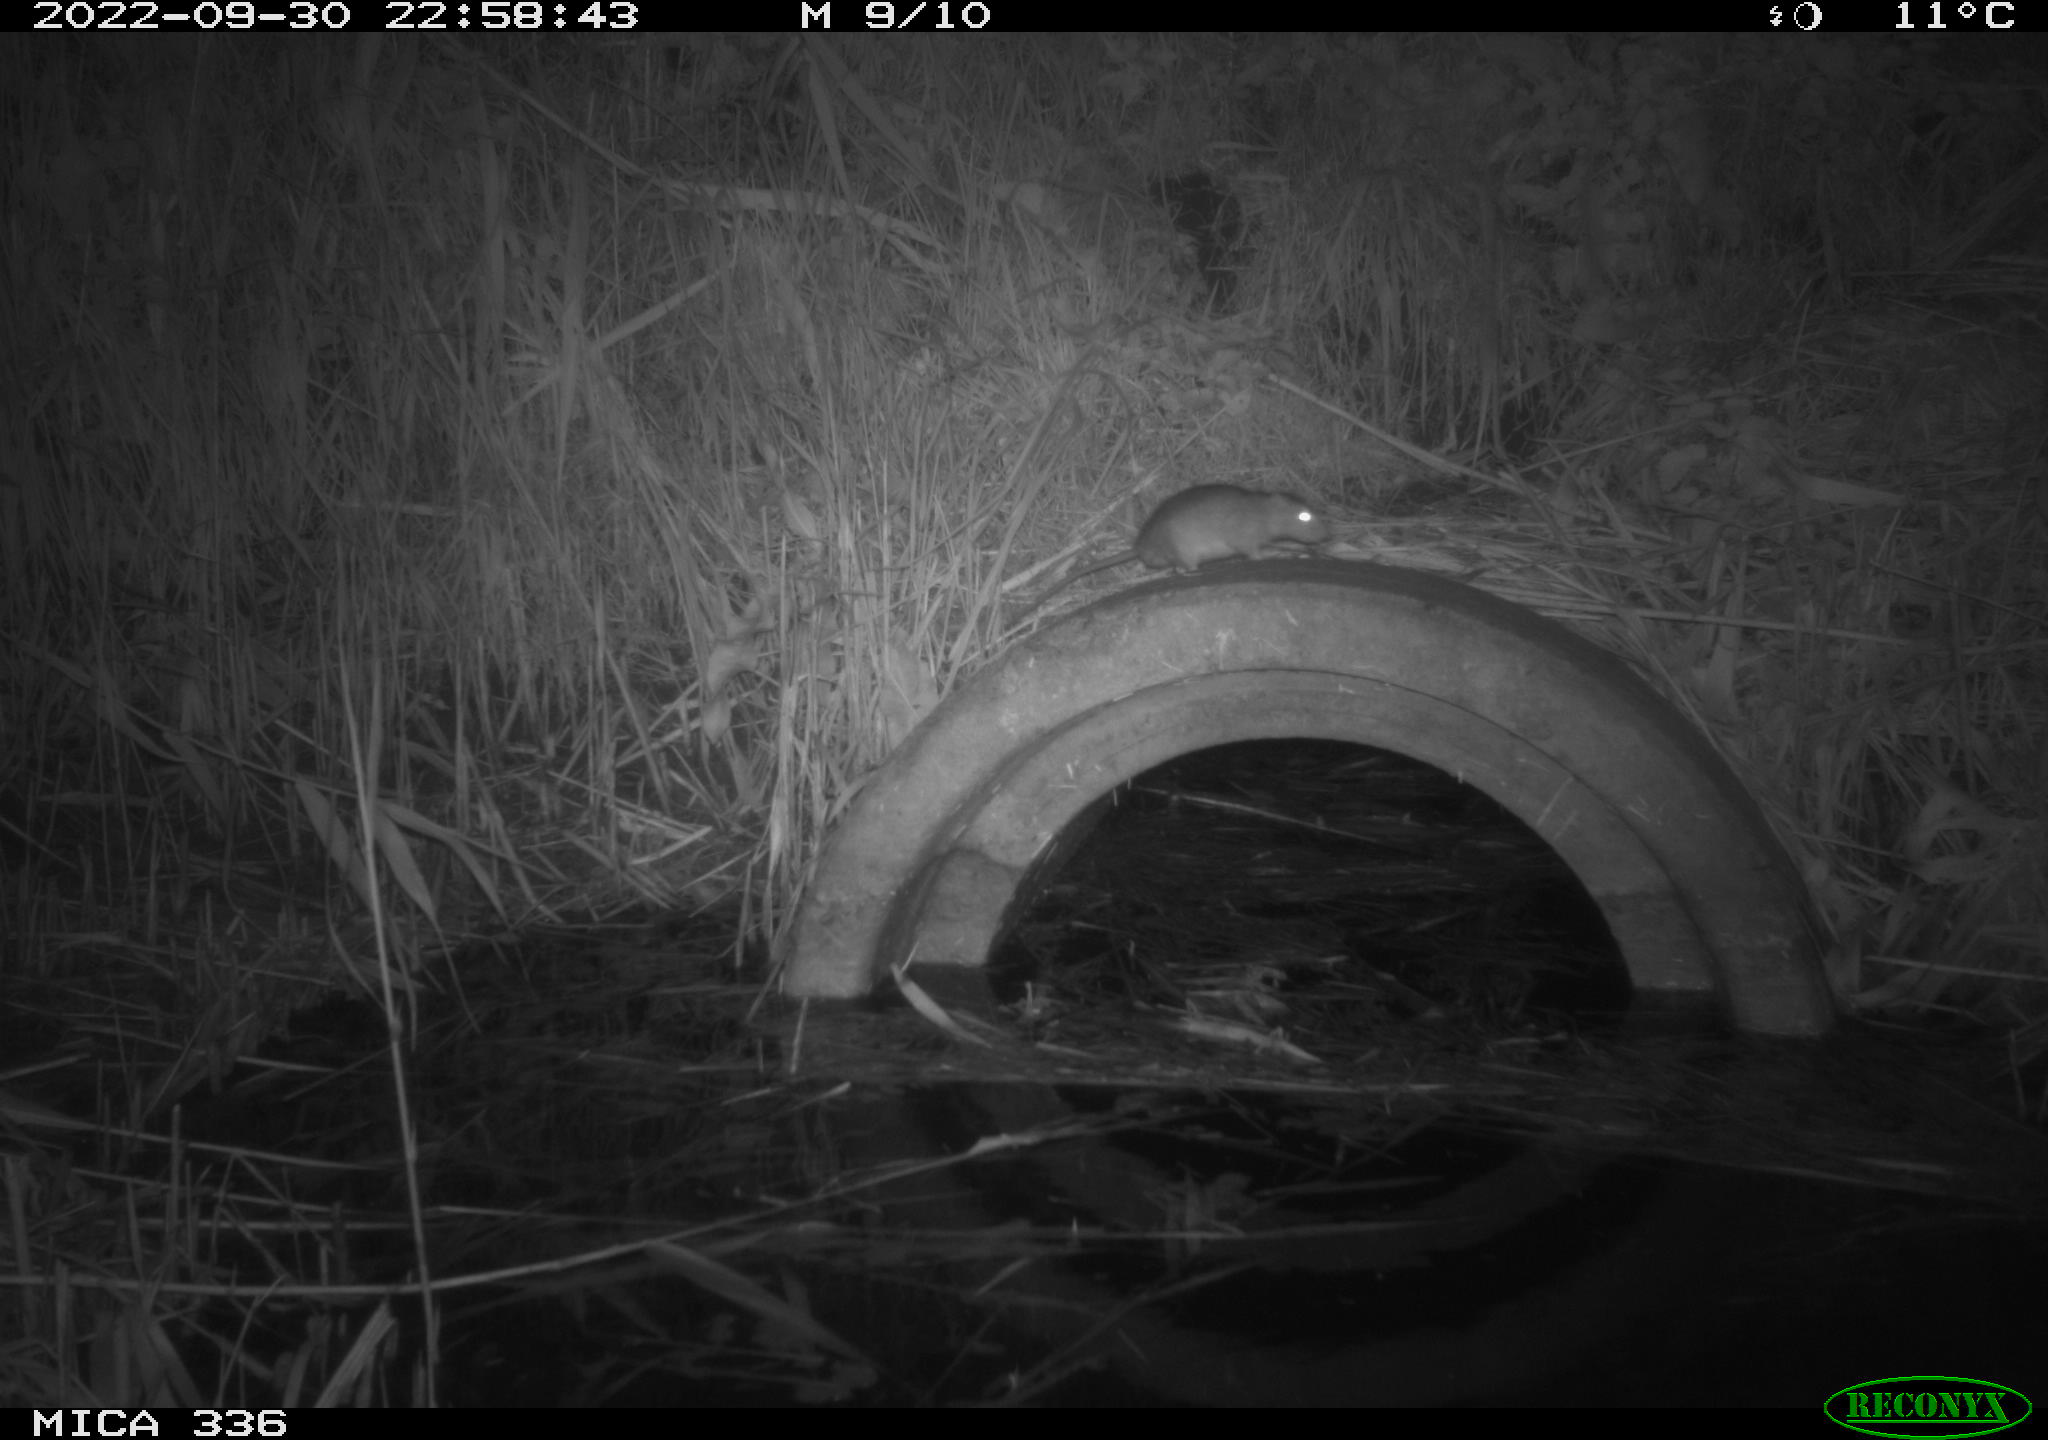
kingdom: Animalia
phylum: Chordata
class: Mammalia
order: Rodentia
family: Muridae
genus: Rattus
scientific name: Rattus norvegicus
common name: Brown rat
